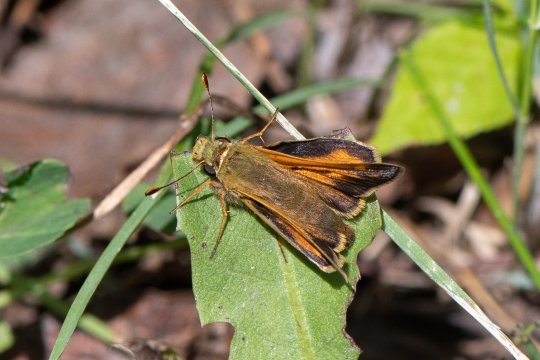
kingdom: Animalia
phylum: Arthropoda
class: Insecta
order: Lepidoptera
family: Hesperiidae
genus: Hesperia
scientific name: Hesperia sassacus
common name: Sassacus Skipper
